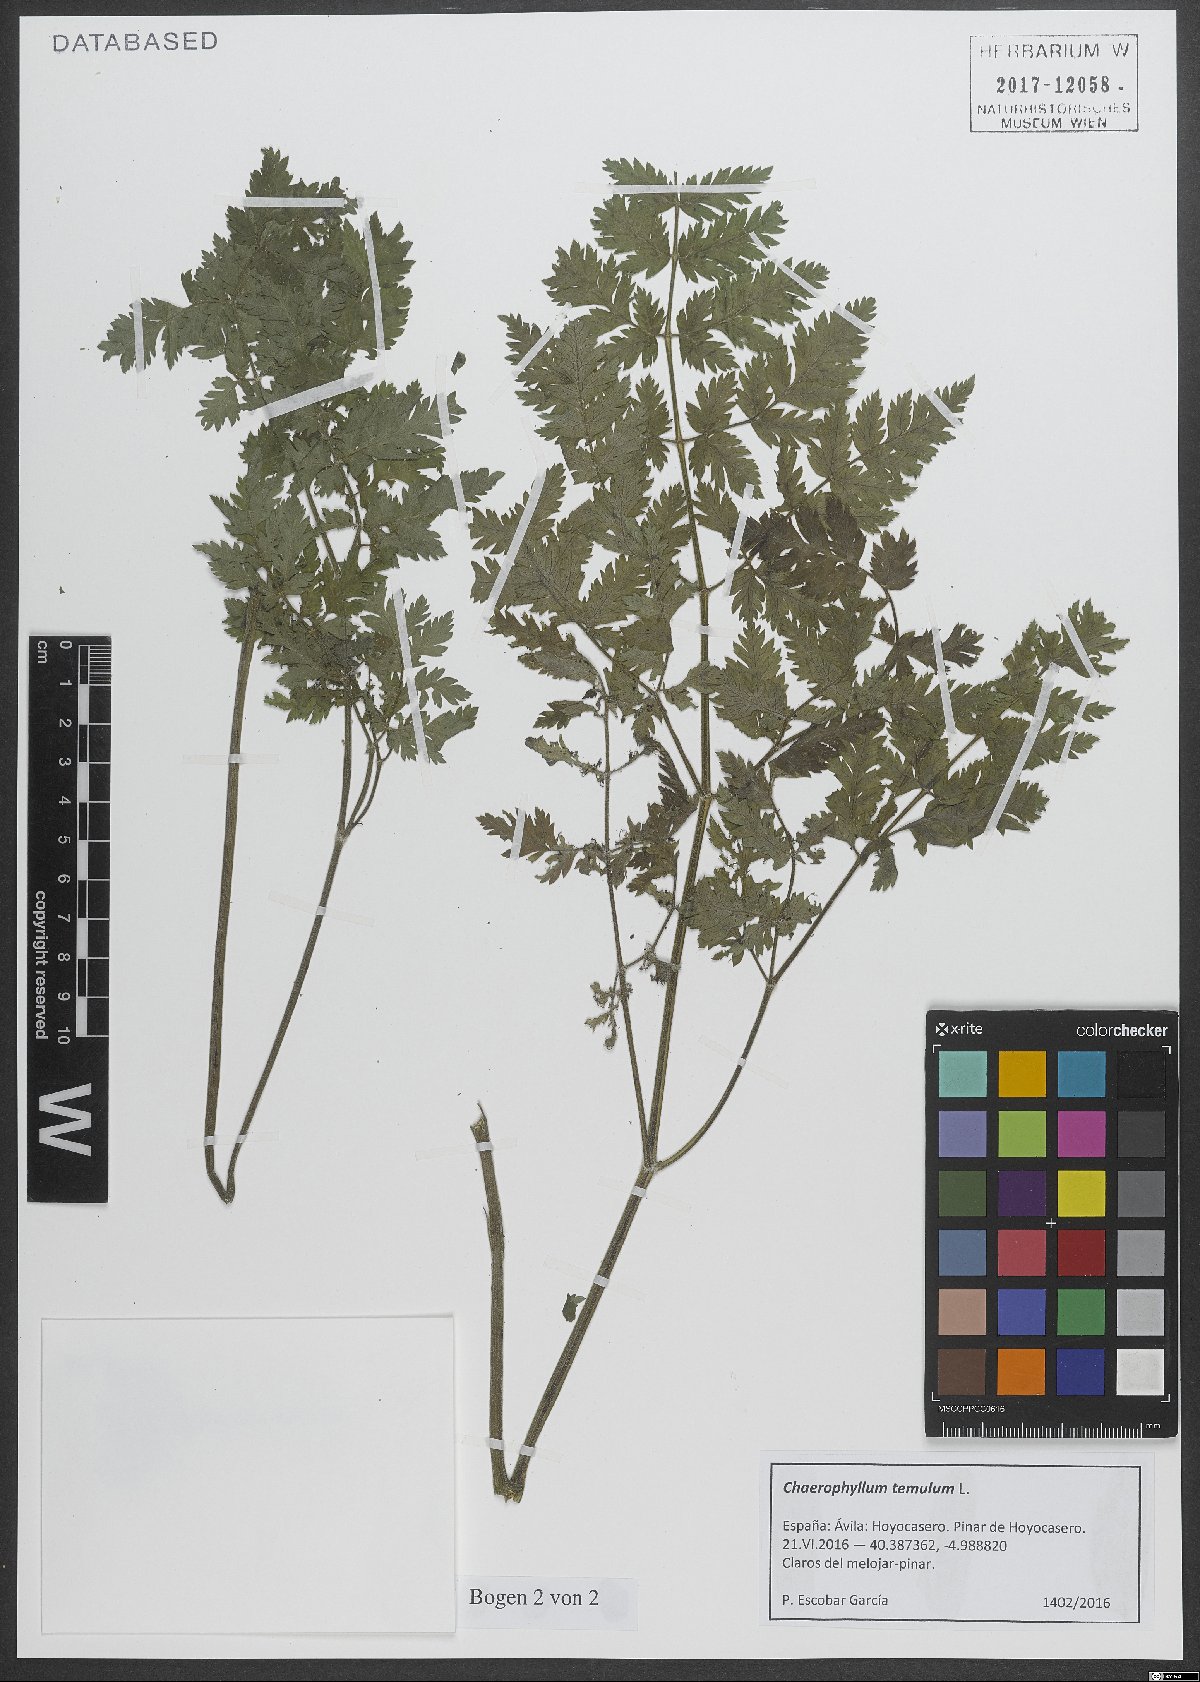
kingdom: Plantae
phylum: Tracheophyta
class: Magnoliopsida
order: Apiales
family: Apiaceae
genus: Chaerophyllum
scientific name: Chaerophyllum temulum
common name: Rough chervil
